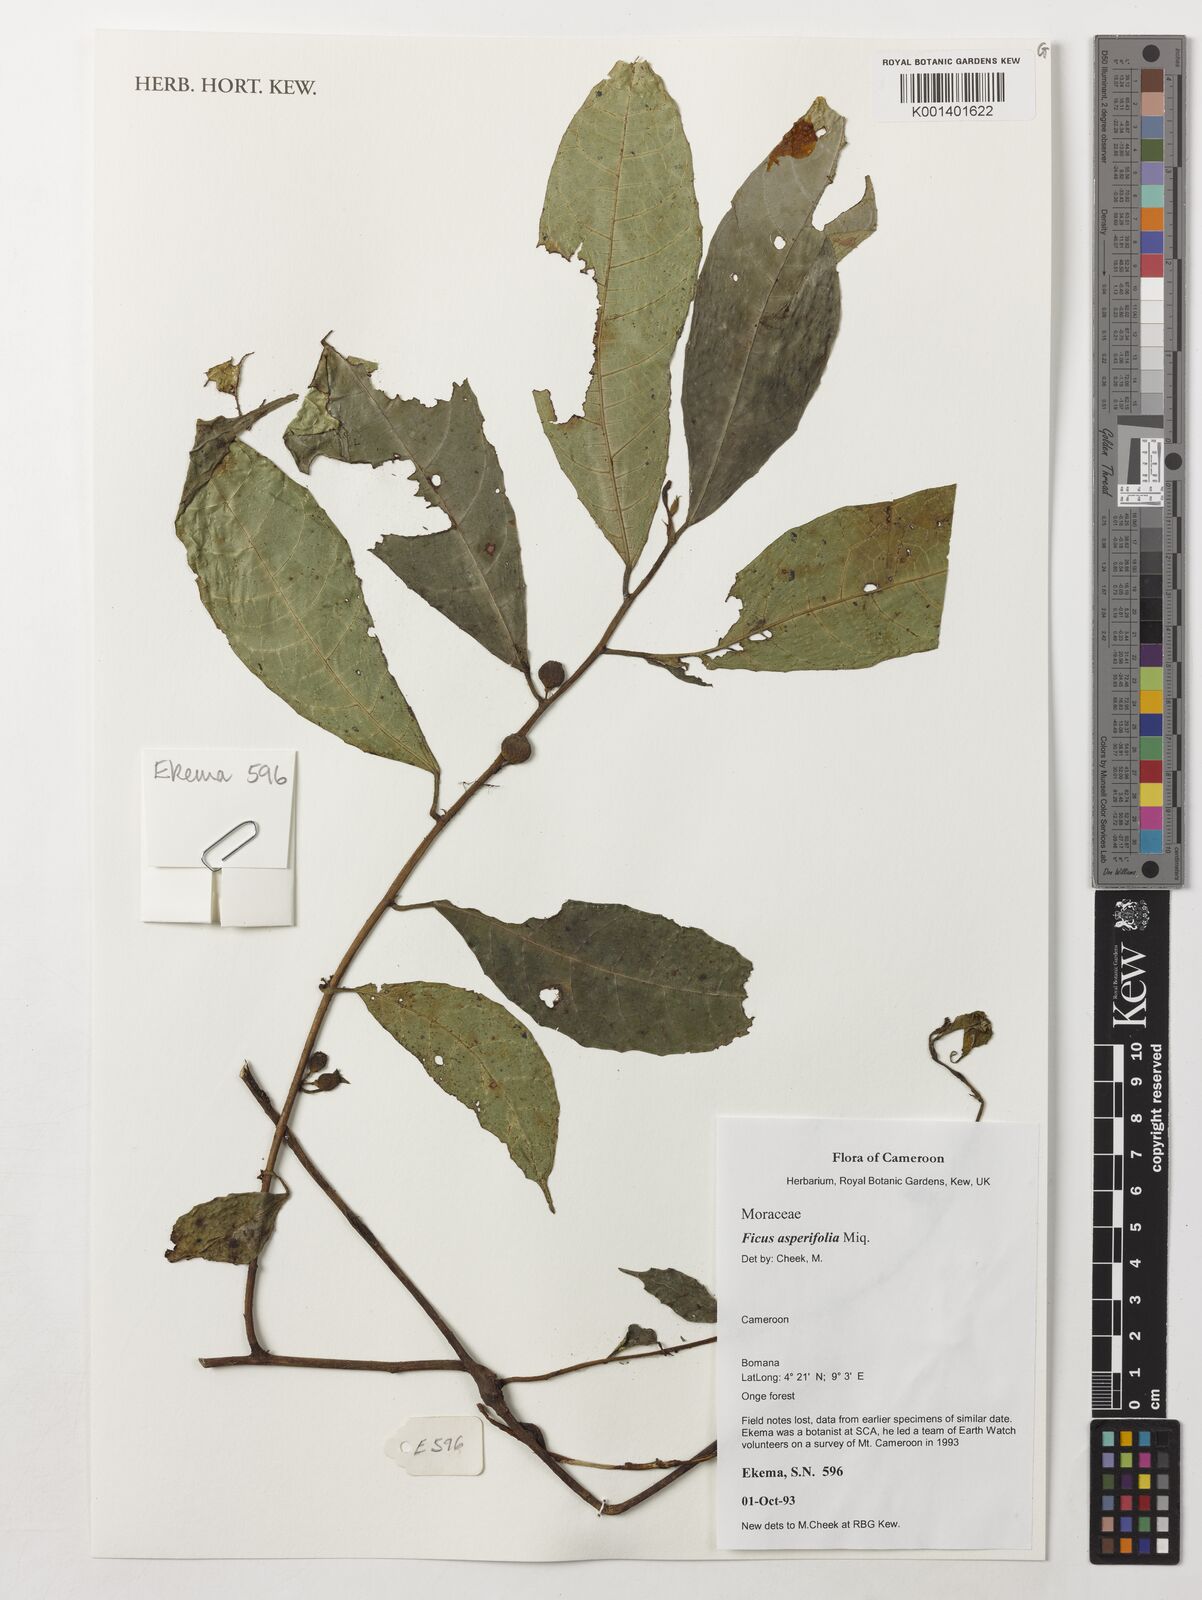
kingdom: Plantae
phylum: Tracheophyta
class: Magnoliopsida
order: Rosales
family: Moraceae
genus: Ficus
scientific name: Ficus asperifolia
